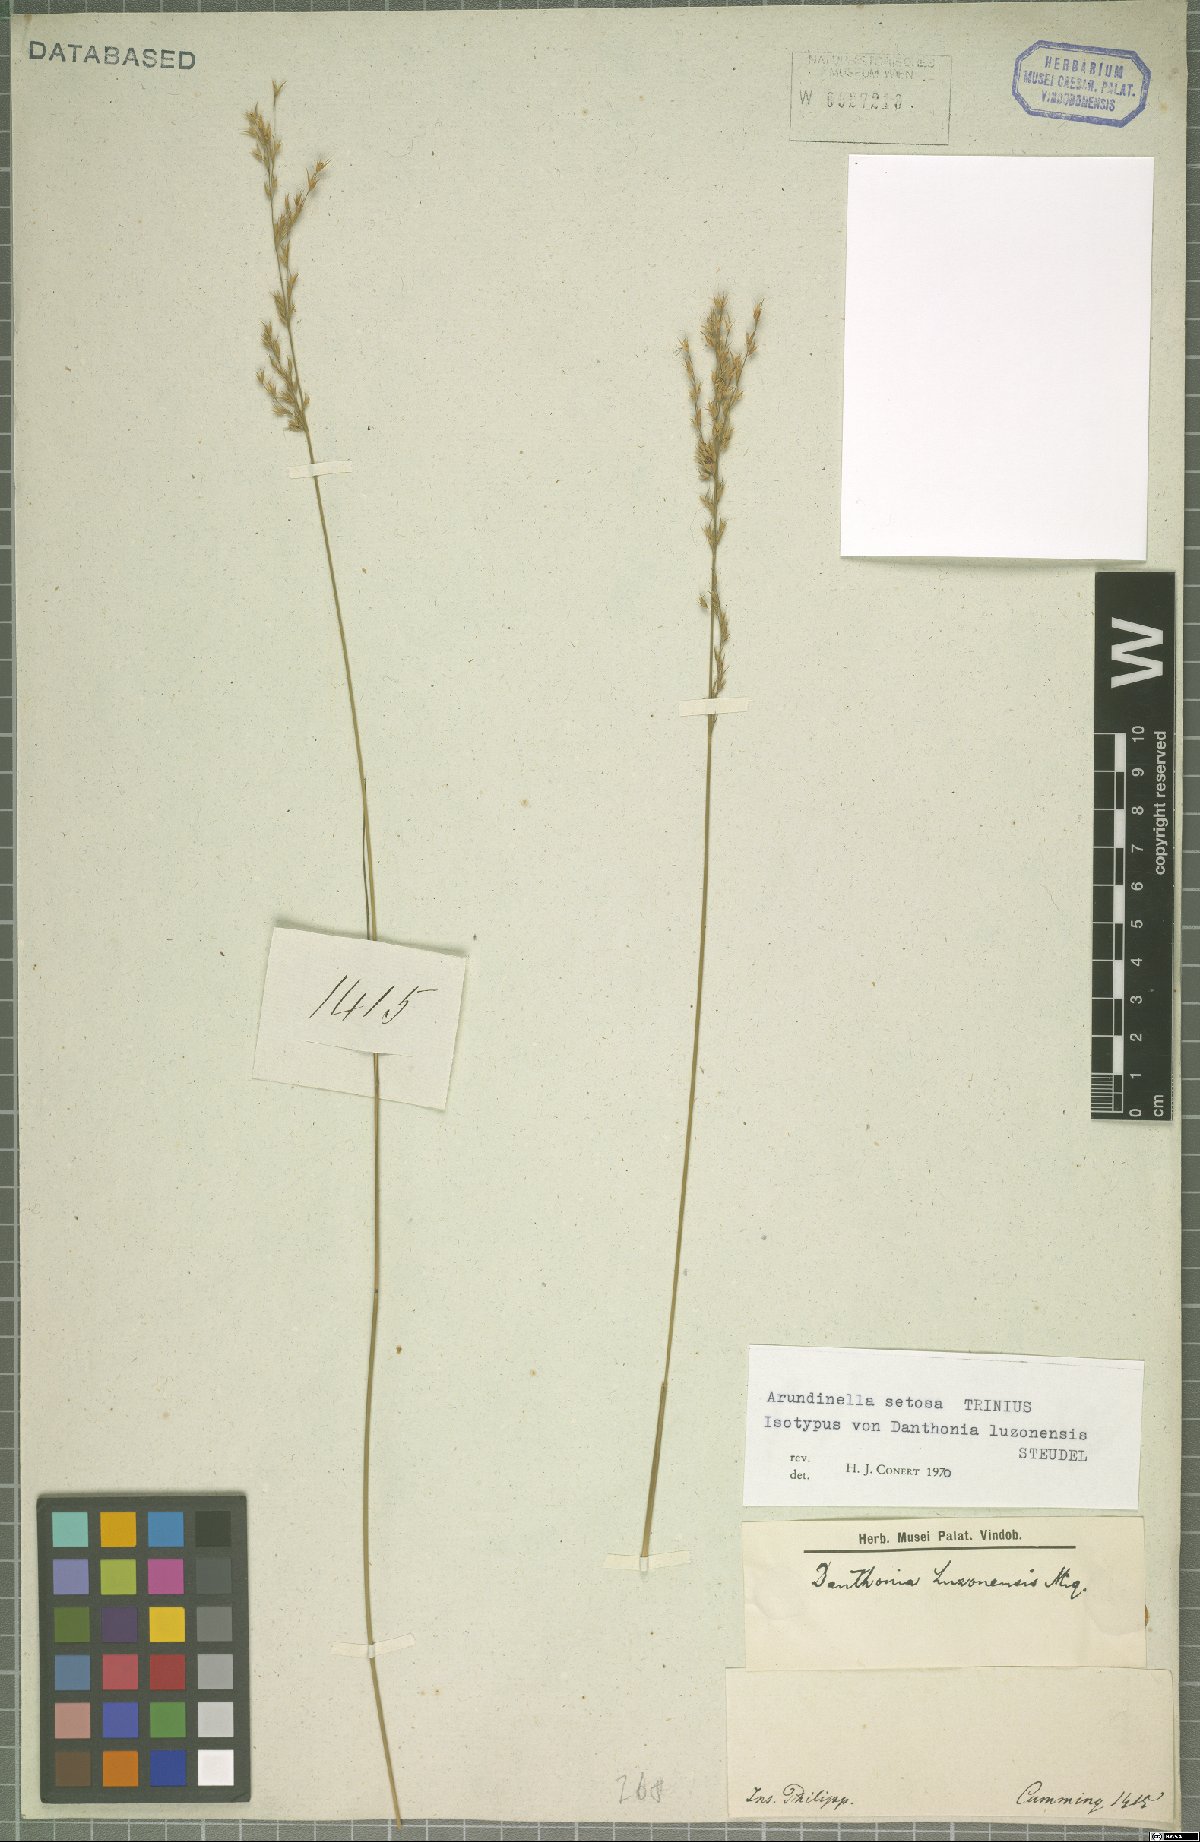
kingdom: Plantae
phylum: Tracheophyta
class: Liliopsida
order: Poales
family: Poaceae
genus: Arundinella
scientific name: Arundinella setosa
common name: Reed grass
